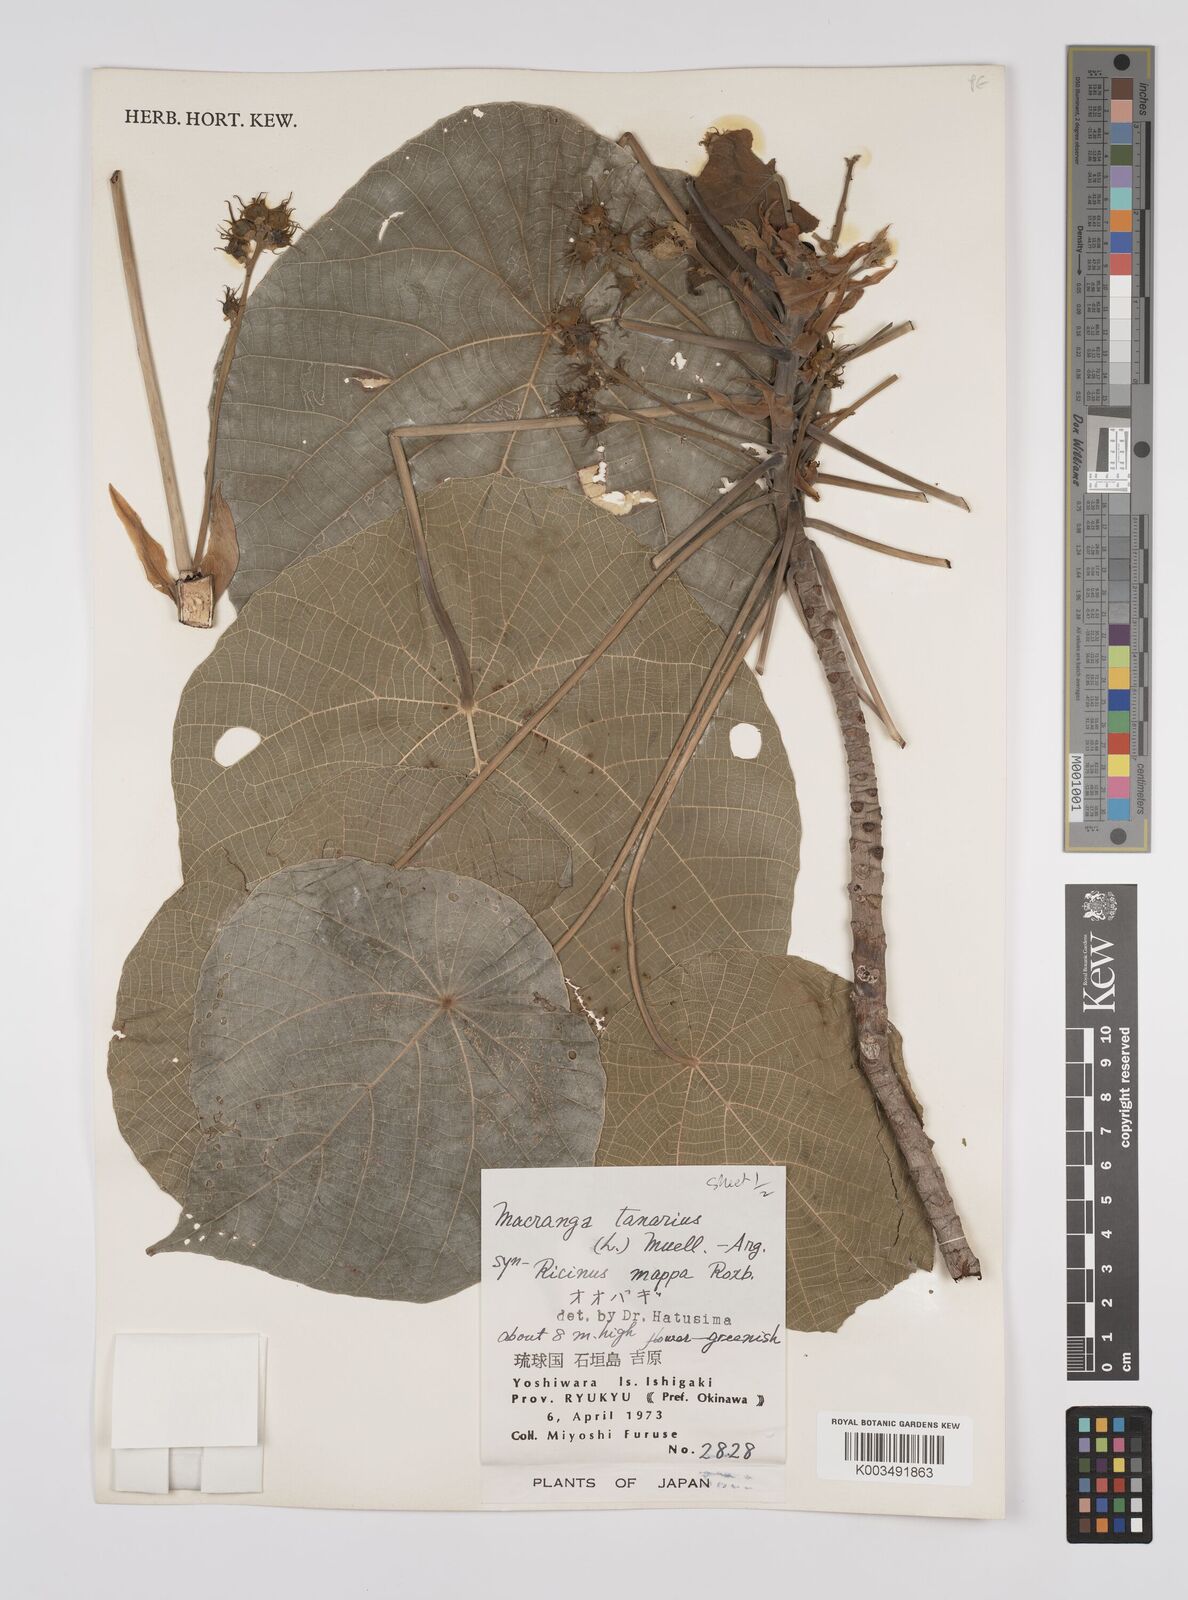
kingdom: Plantae
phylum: Tracheophyta
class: Magnoliopsida
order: Malpighiales
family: Euphorbiaceae
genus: Macaranga
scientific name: Macaranga tanarius
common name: Parasol leaf tree
